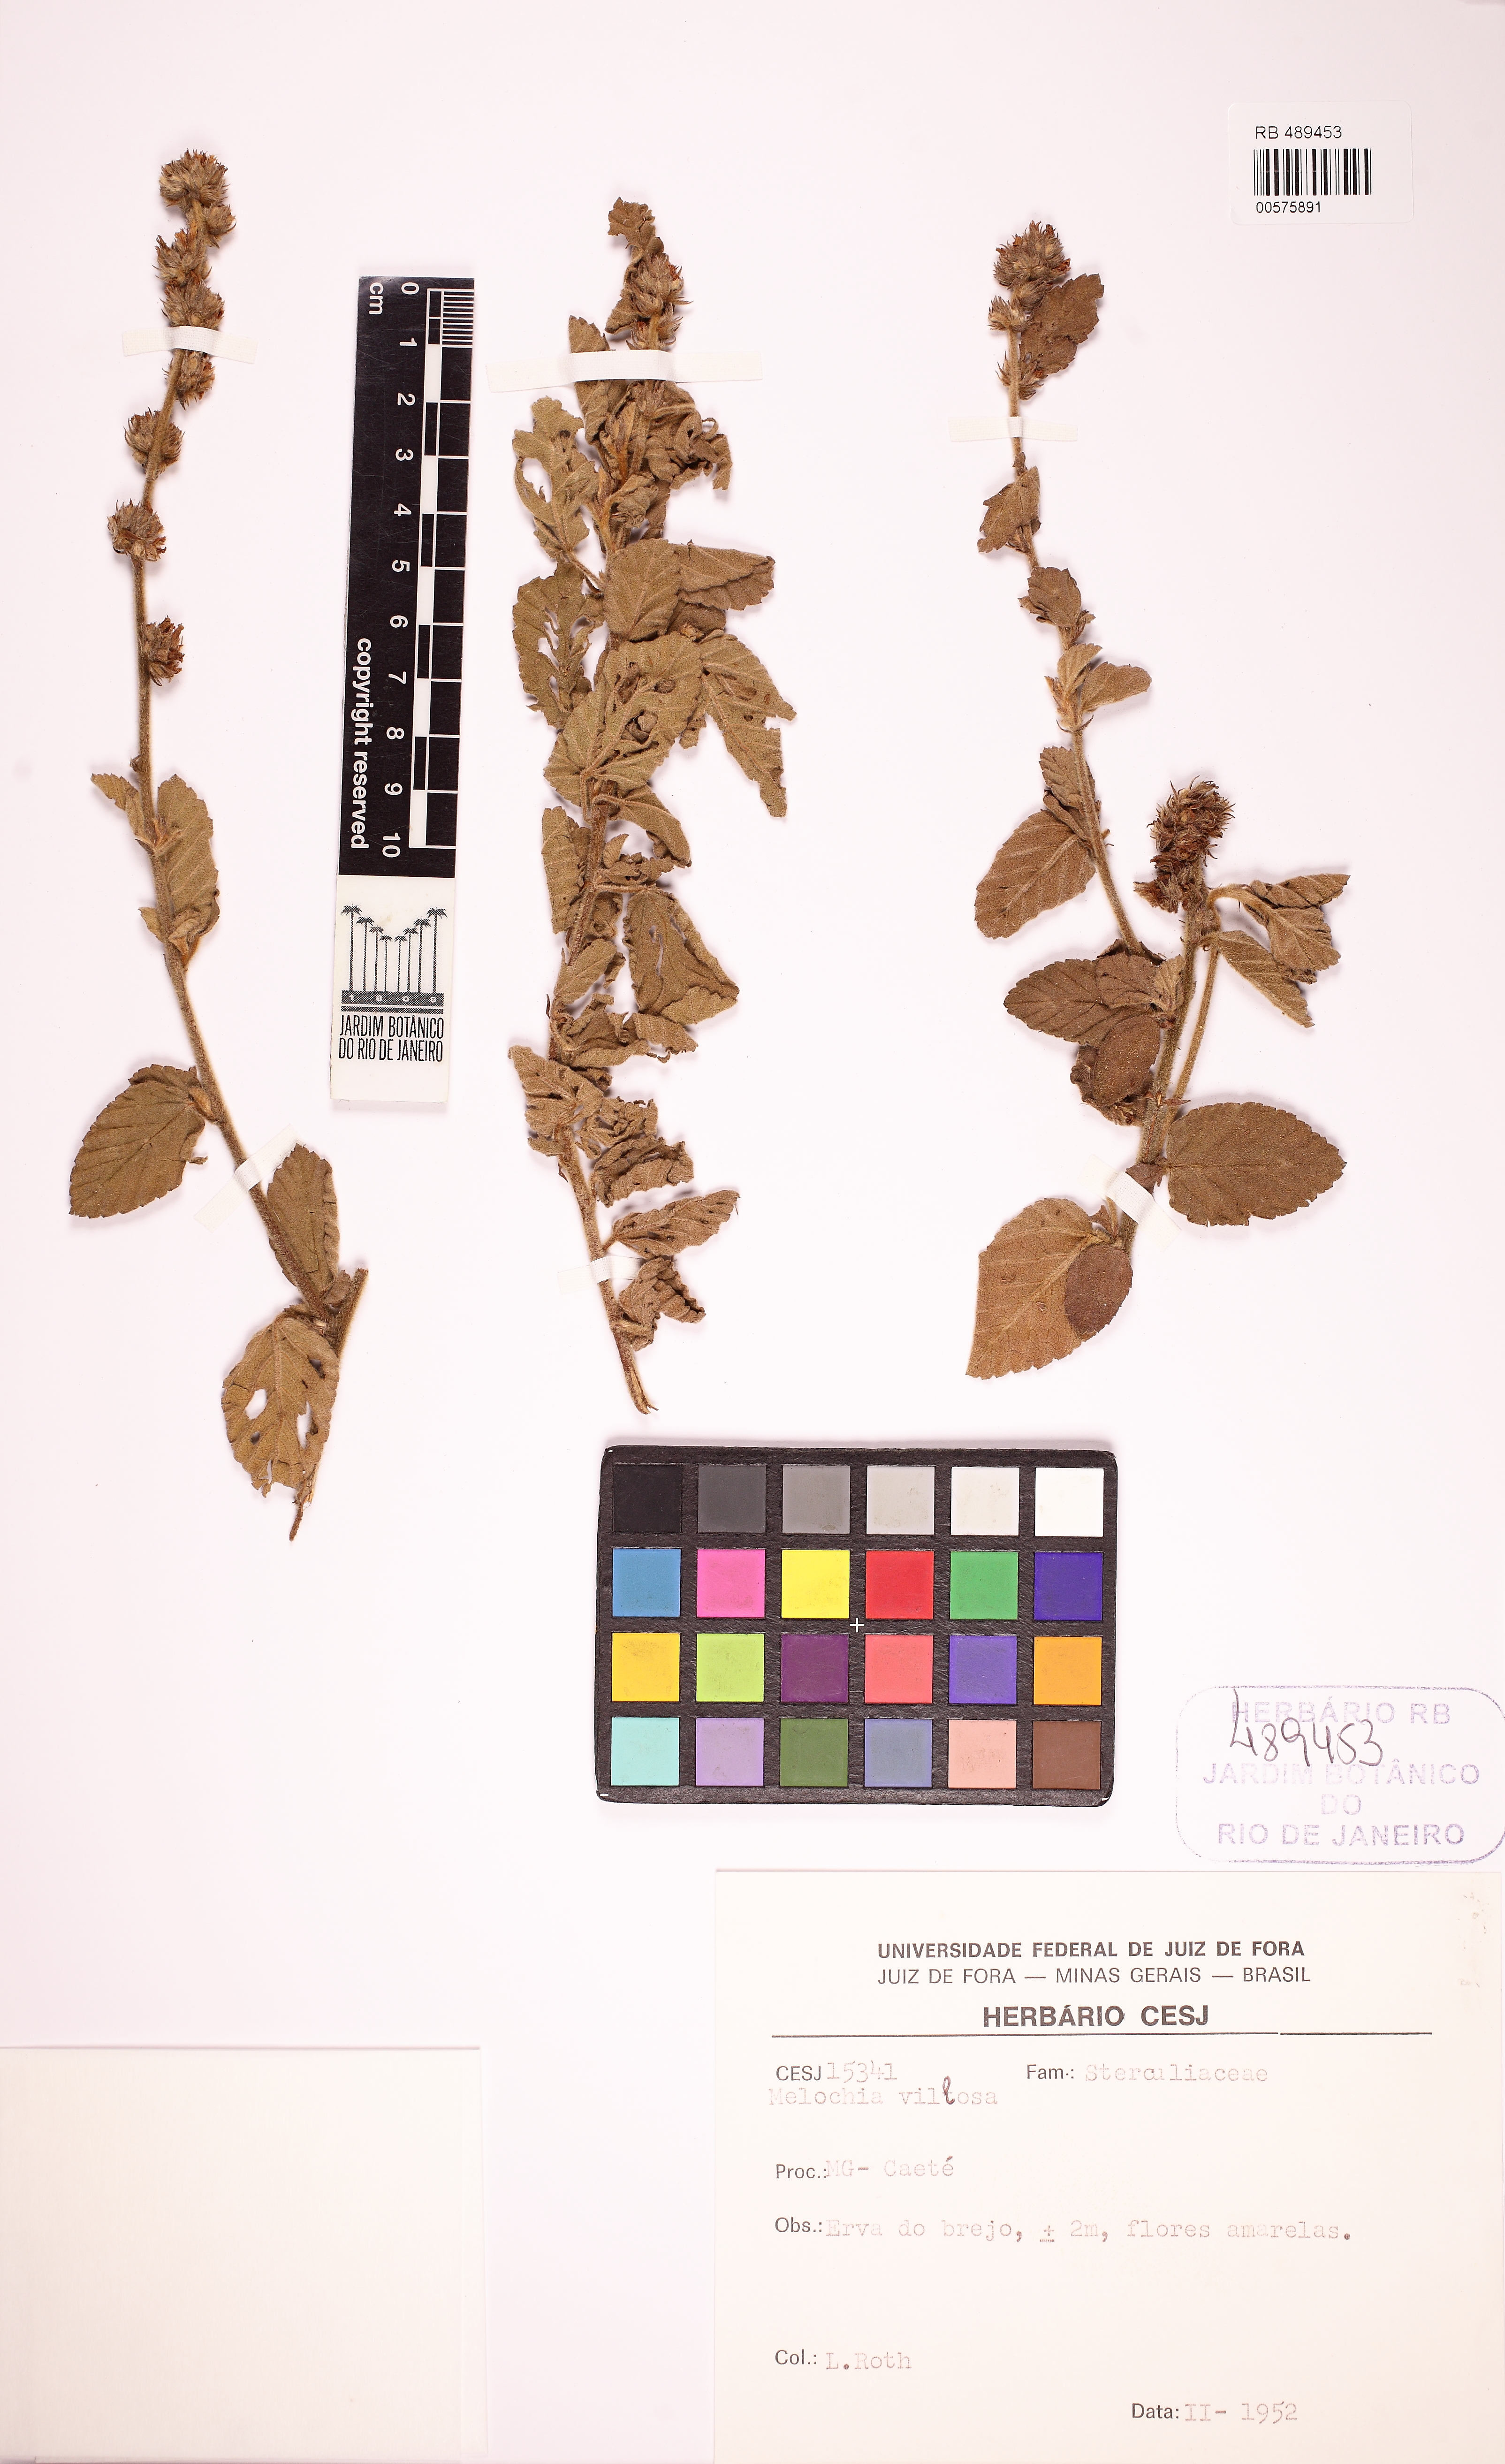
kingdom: Plantae
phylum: Tracheophyta
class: Magnoliopsida
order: Malvales
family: Malvaceae
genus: Melochia
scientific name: Melochia spicata
